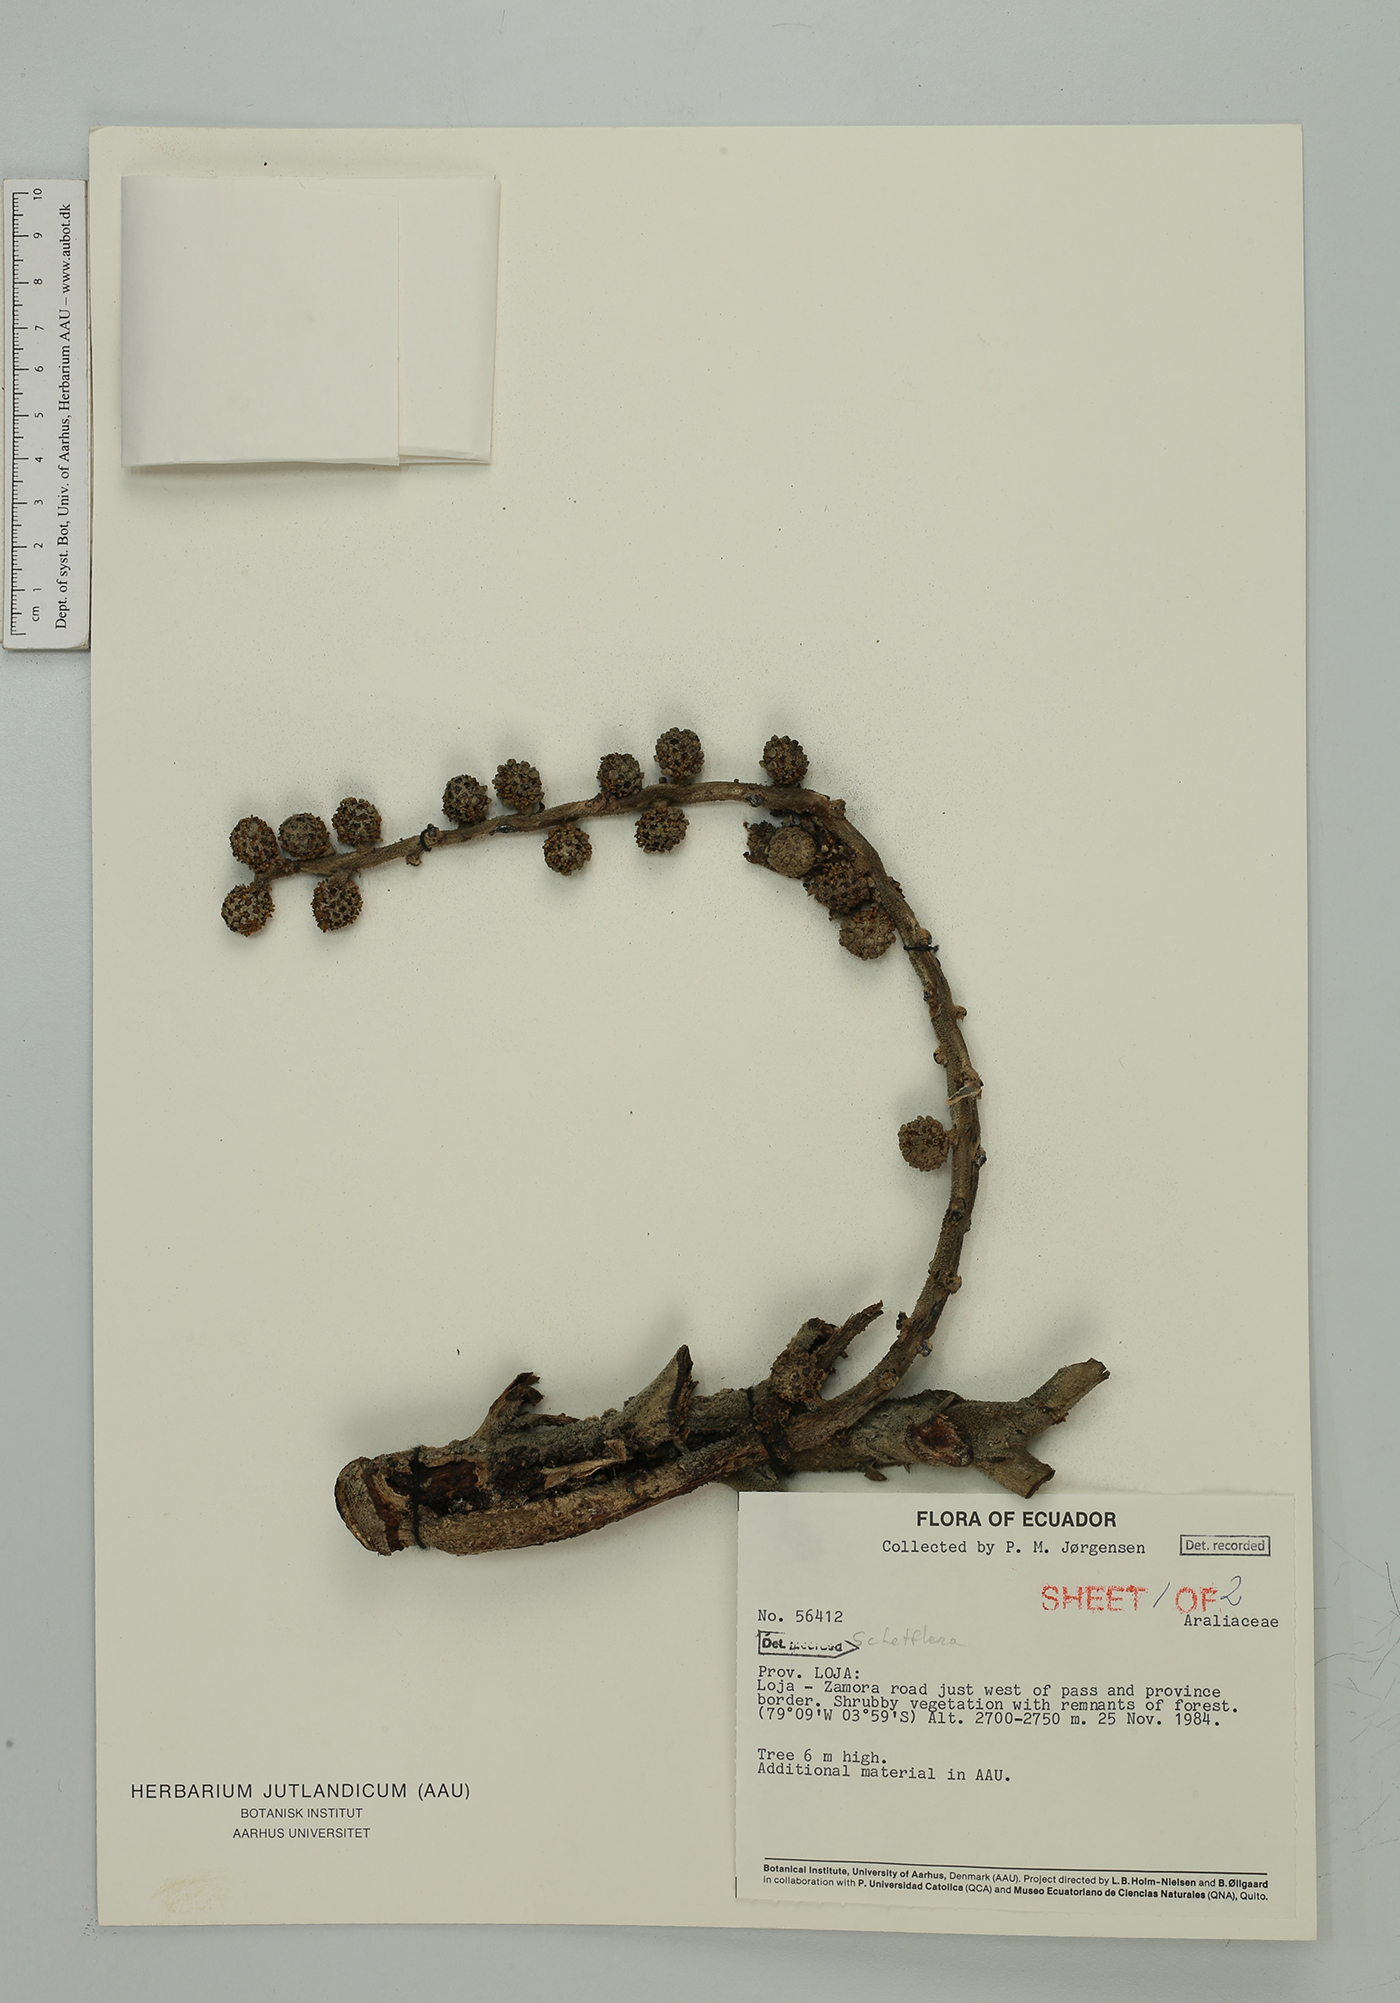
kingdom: Plantae
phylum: Tracheophyta
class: Magnoliopsida
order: Apiales
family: Araliaceae
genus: Sciodaphyllum
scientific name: Sciodaphyllum
